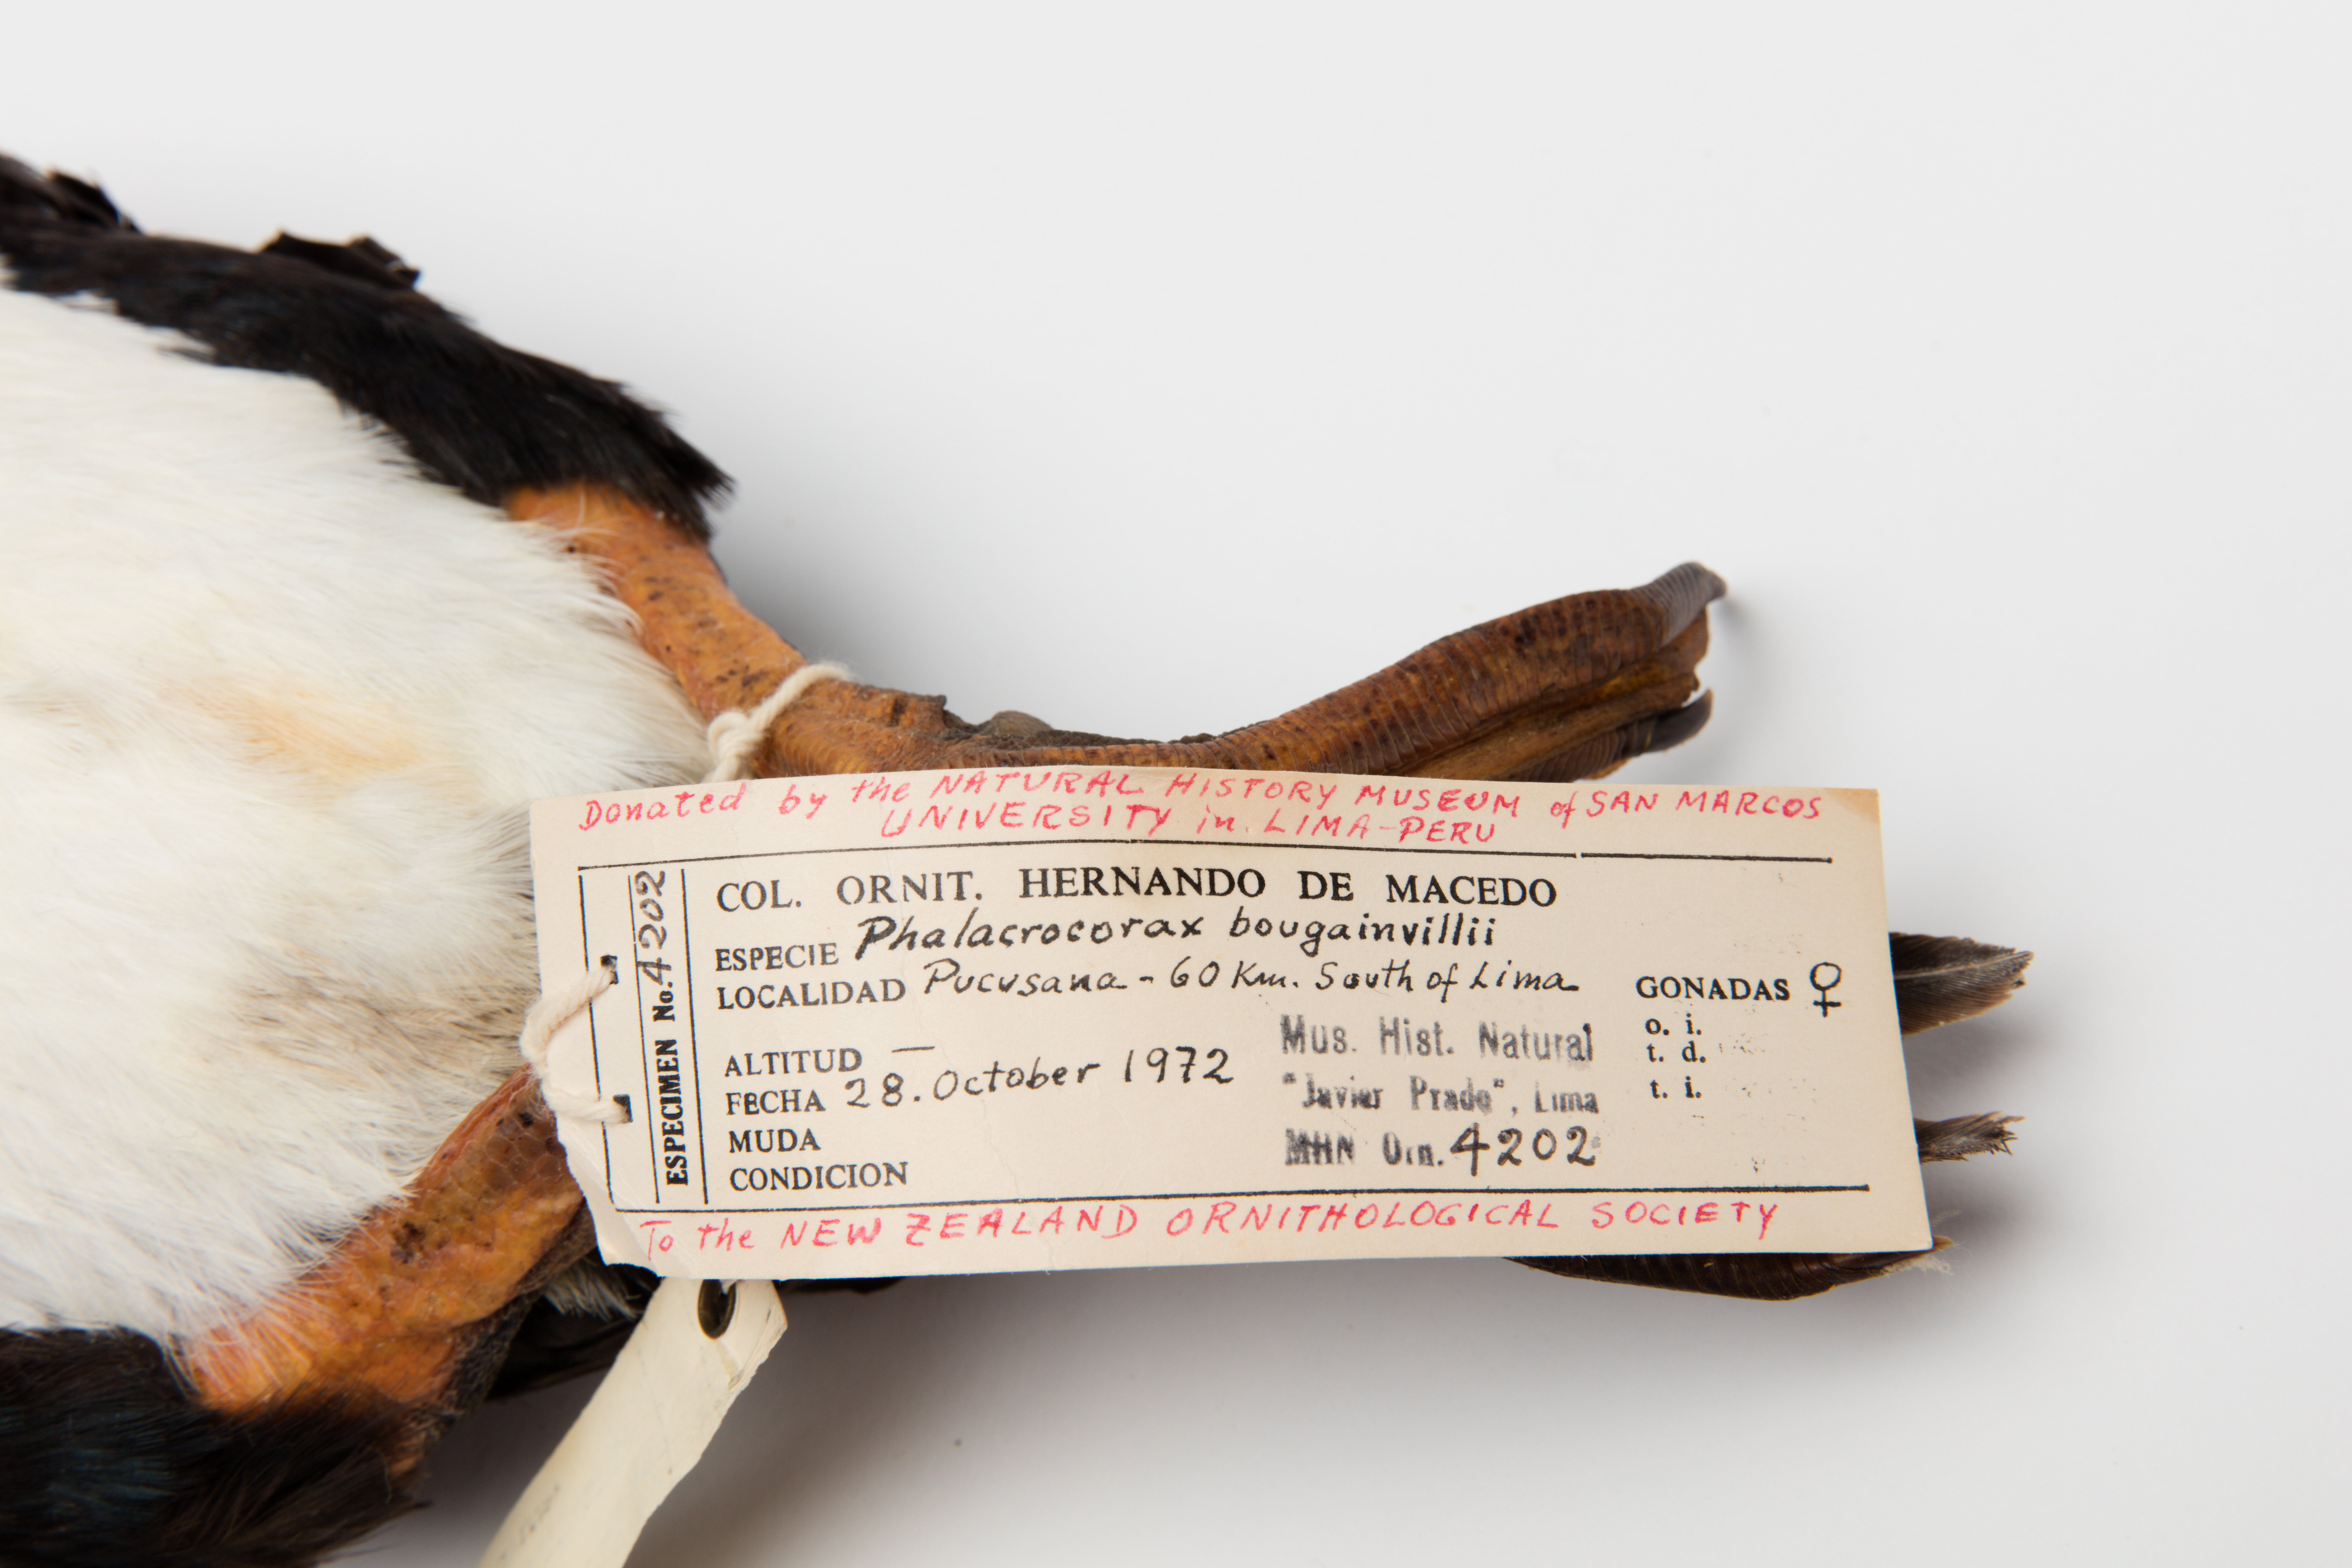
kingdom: Animalia
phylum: Chordata
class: Aves
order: Suliformes
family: Phalacrocoracidae
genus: Leucocarbo
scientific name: Leucocarbo bougainvillii
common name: Guanay cormorant
